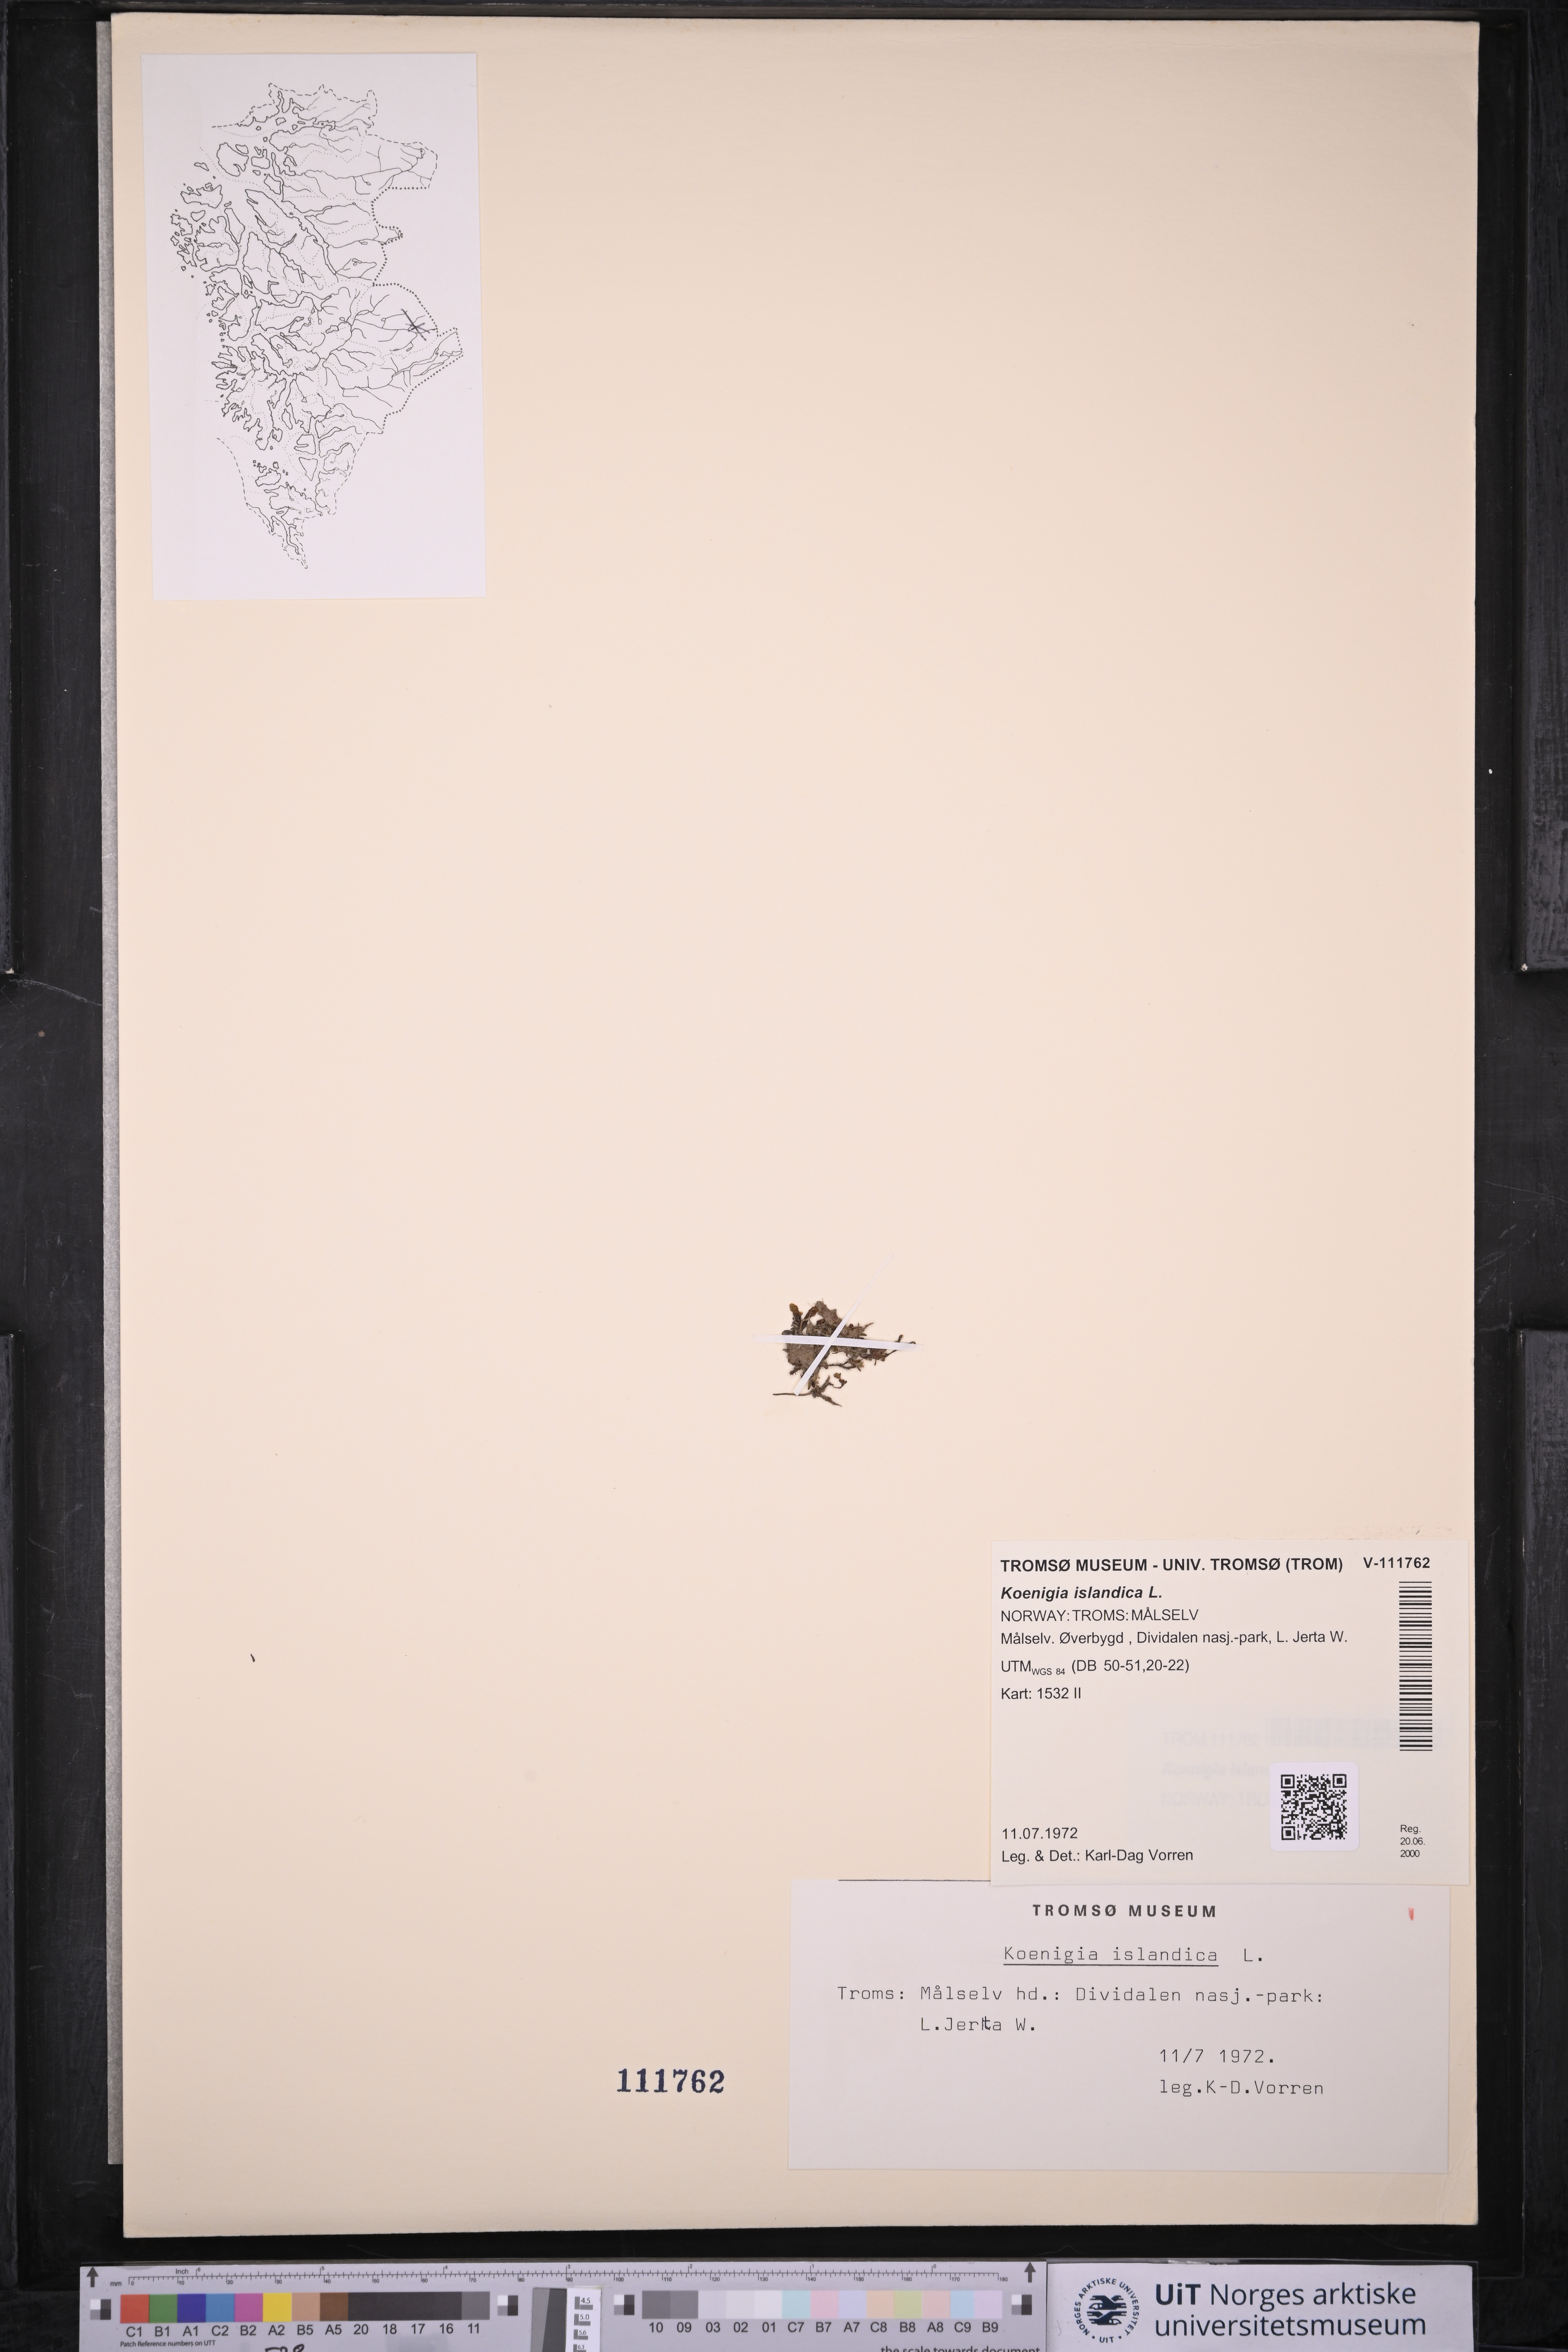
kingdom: Plantae
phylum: Tracheophyta
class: Magnoliopsida
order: Caryophyllales
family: Polygonaceae
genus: Koenigia
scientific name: Koenigia islandica
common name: Iceland-purslane
